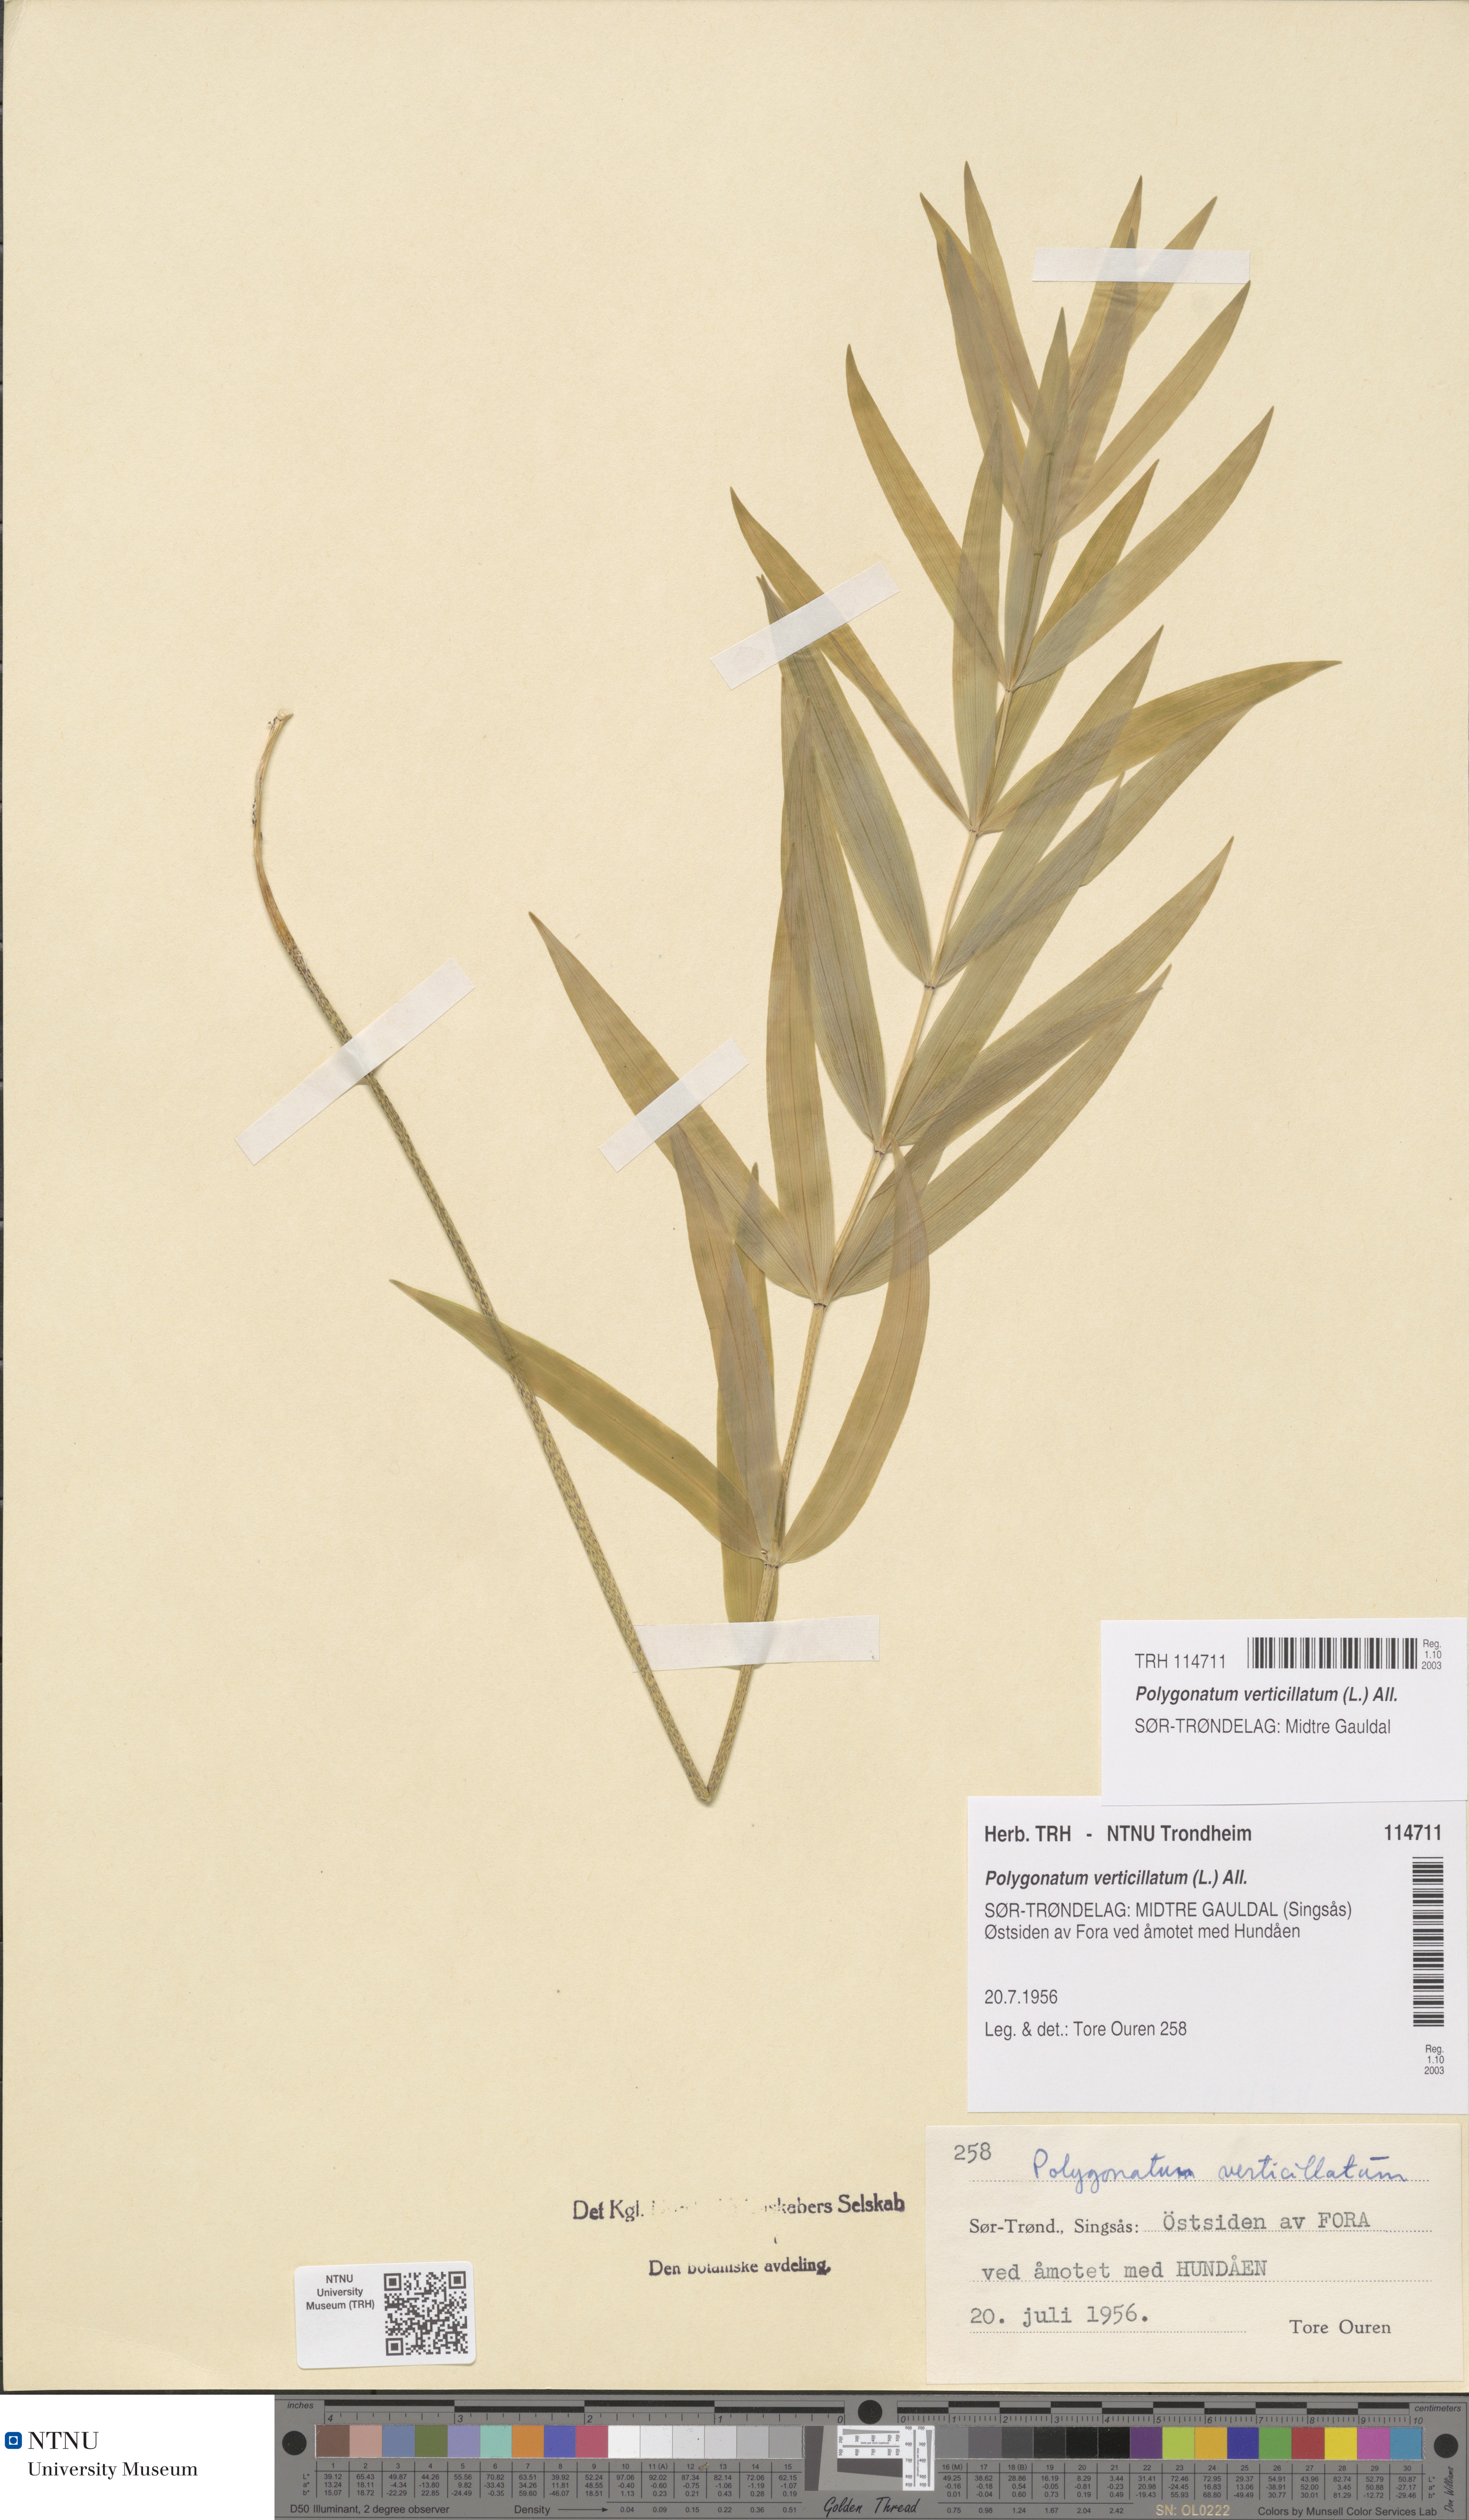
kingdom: Plantae
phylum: Tracheophyta
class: Liliopsida
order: Asparagales
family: Asparagaceae
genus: Polygonatum
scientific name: Polygonatum verticillatum
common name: Whorled solomon's-seal
